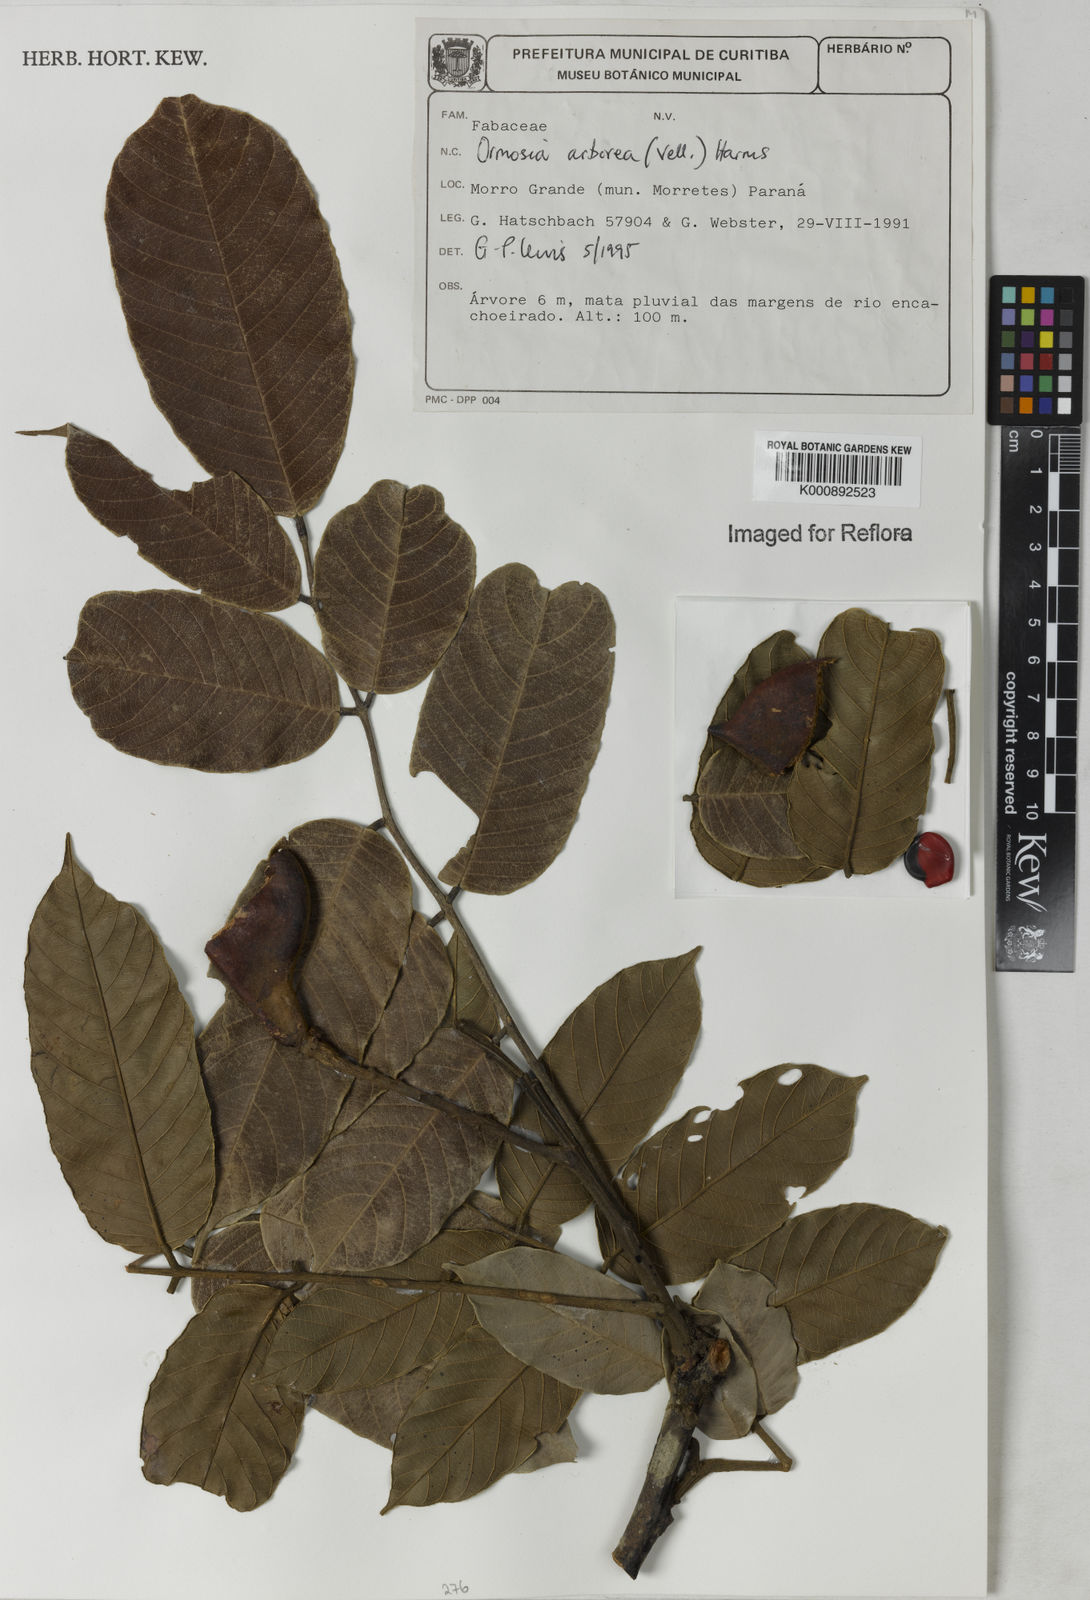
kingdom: Plantae
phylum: Tracheophyta
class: Magnoliopsida
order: Fabales
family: Fabaceae
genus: Ormosia
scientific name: Ormosia arborea
